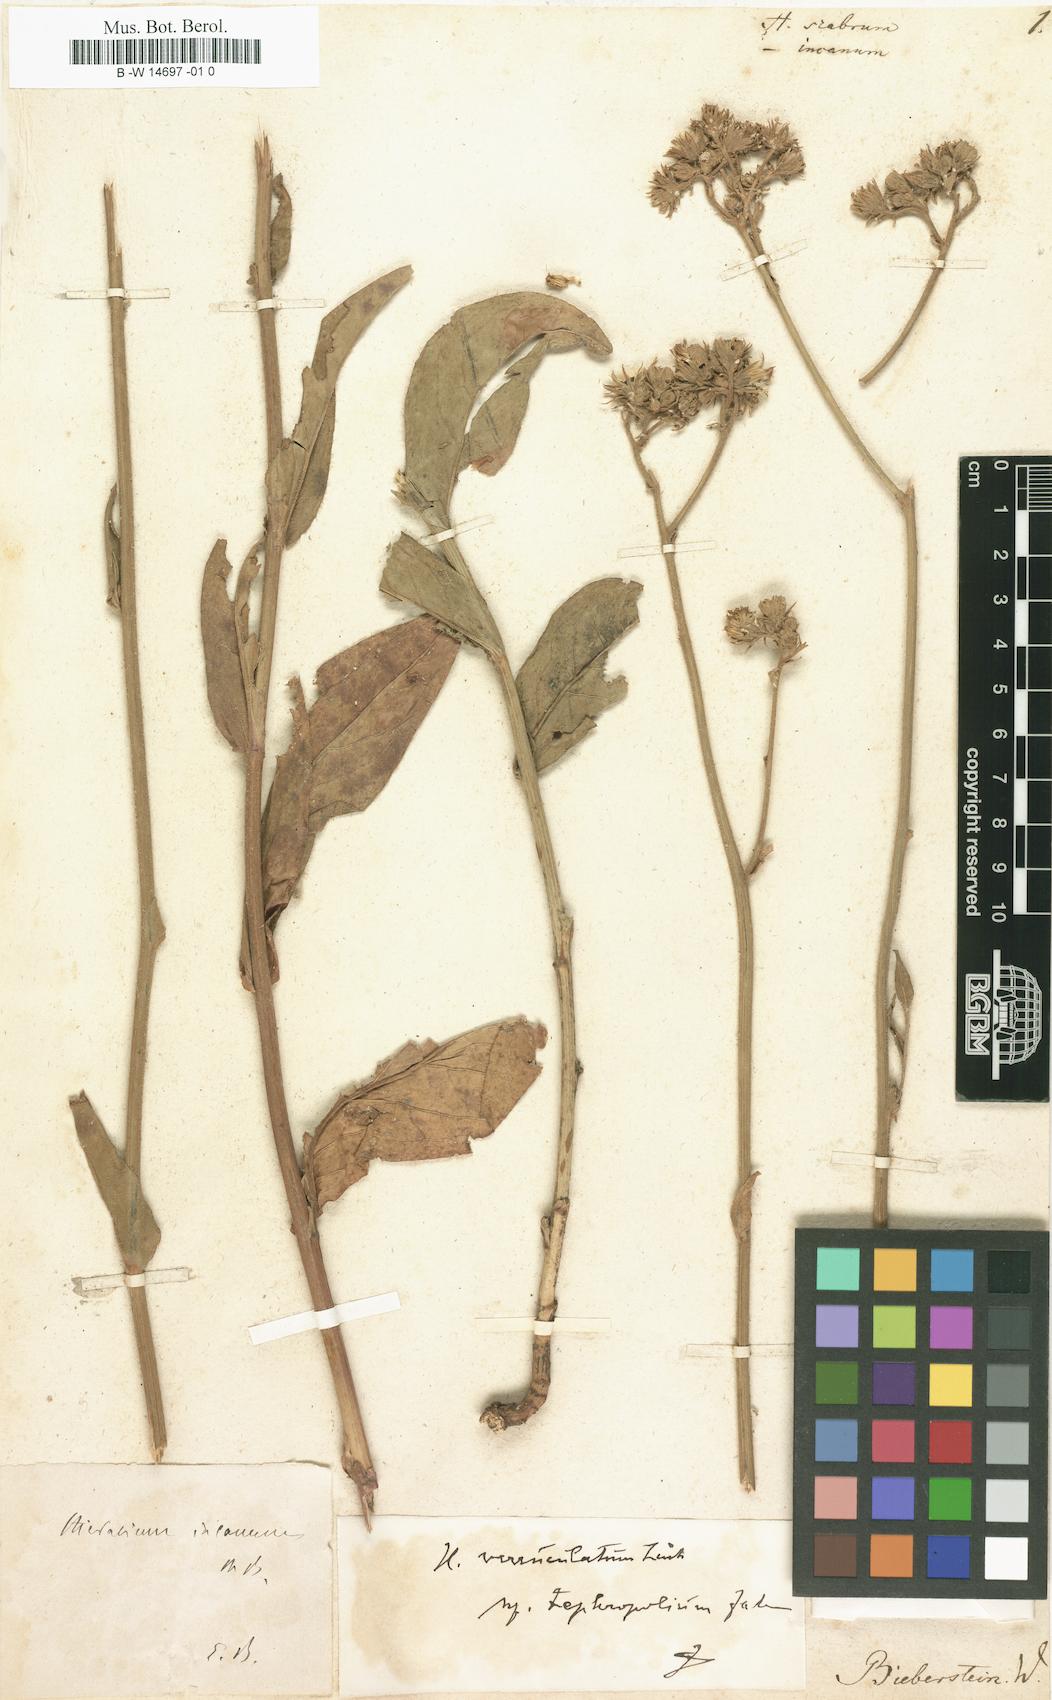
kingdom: Plantae
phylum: Tracheophyta
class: Magnoliopsida
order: Asterales
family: Asteraceae
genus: Hieracium
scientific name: Hieracium scabrum
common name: Rough hawkweed
